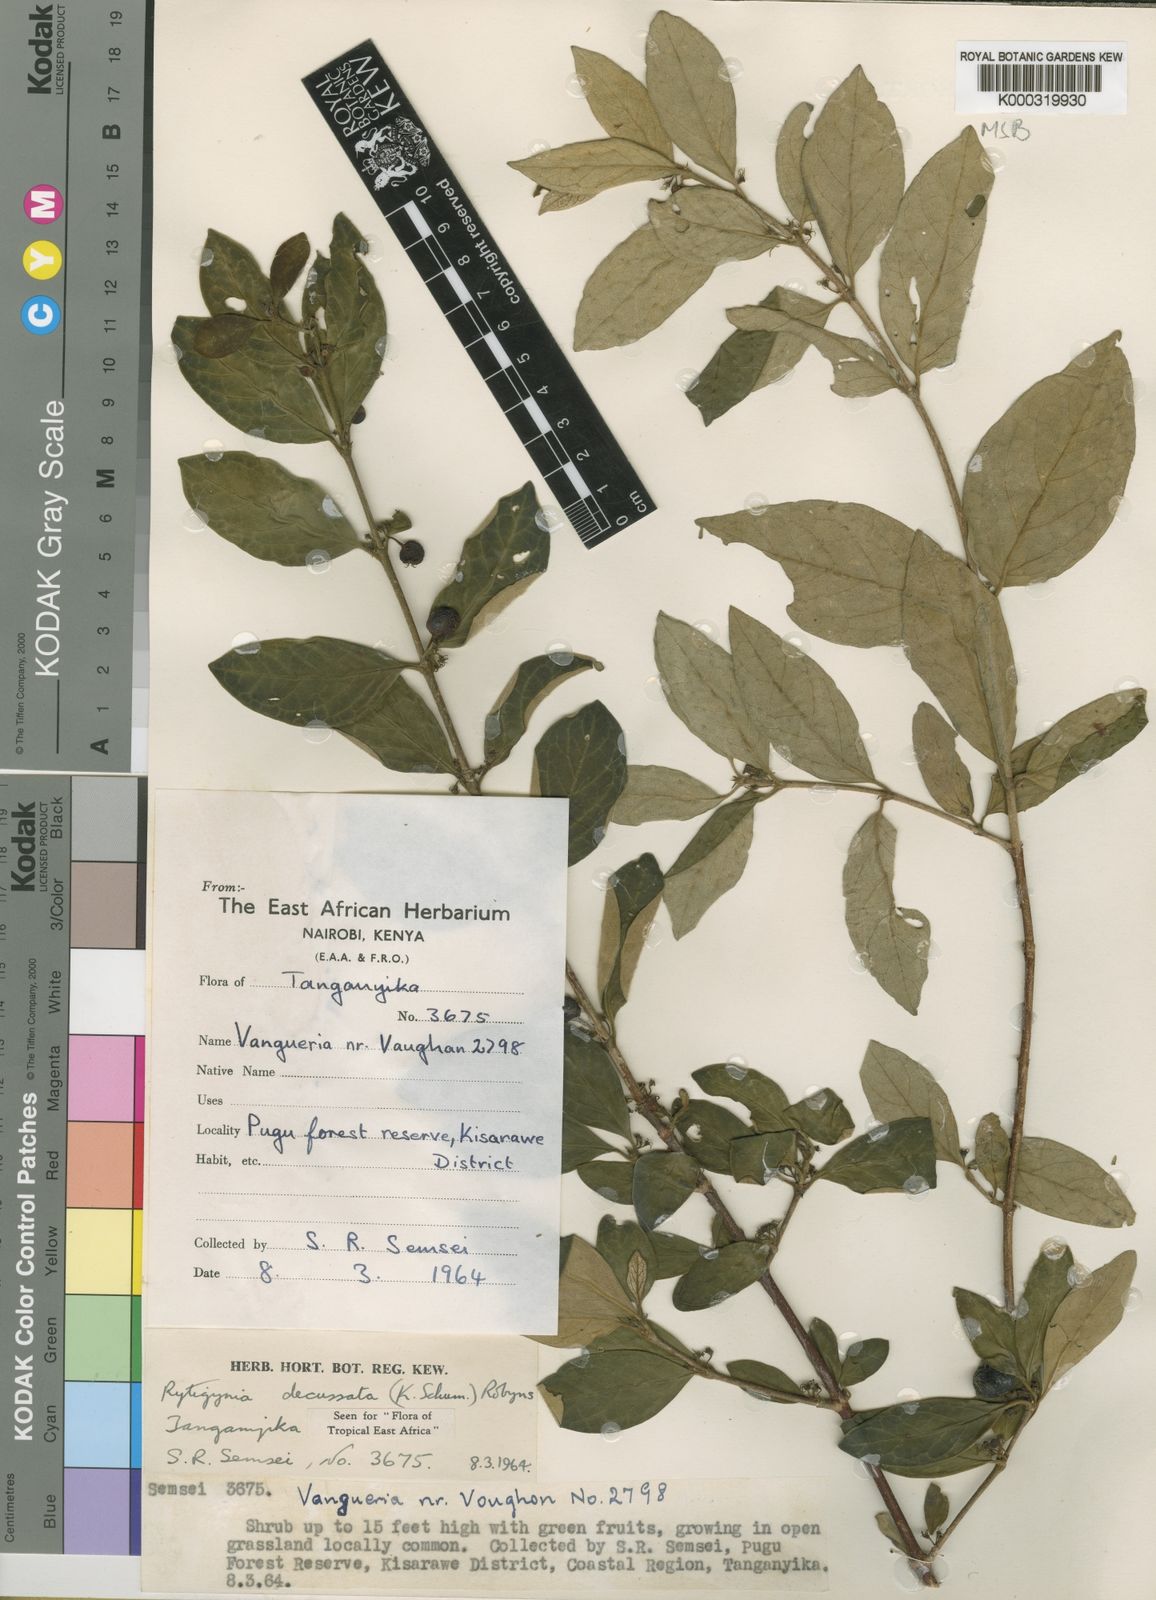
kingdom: Plantae
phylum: Tracheophyta
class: Magnoliopsida
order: Gentianales
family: Rubiaceae
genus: Rytigynia
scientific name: Rytigynia decussata
